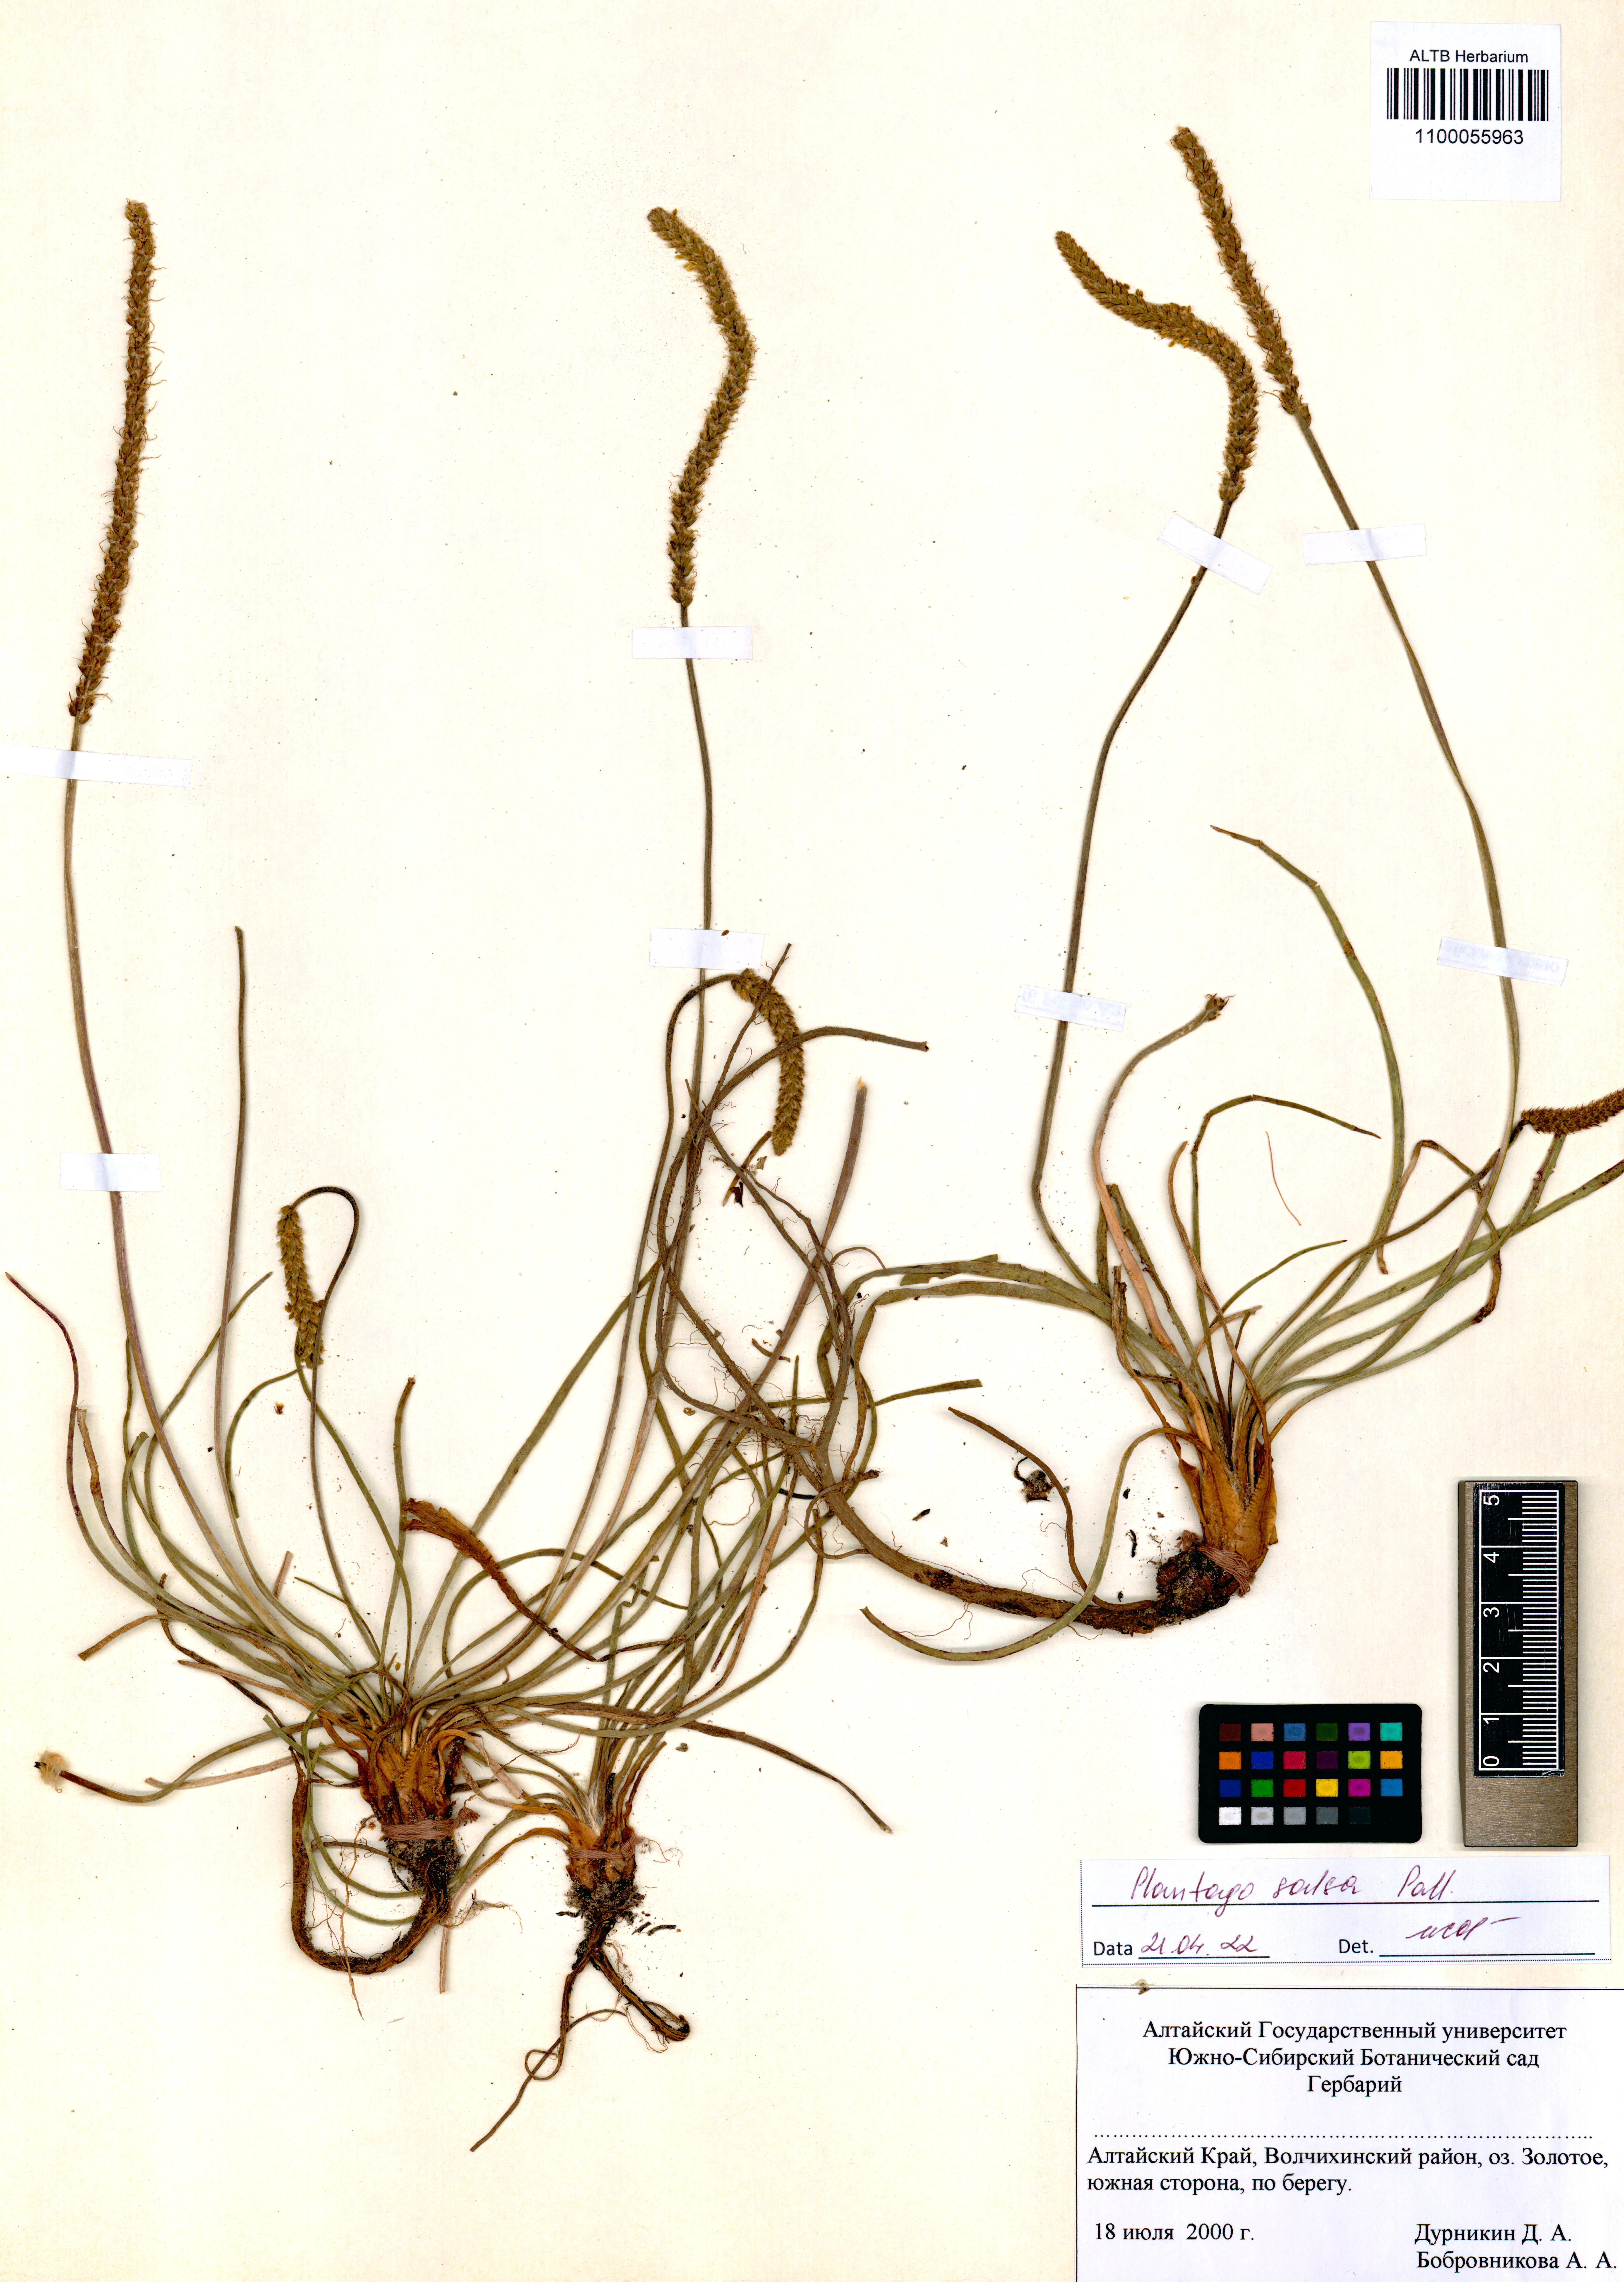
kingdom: Plantae
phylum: Tracheophyta
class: Magnoliopsida
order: Lamiales
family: Plantaginaceae
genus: Plantago
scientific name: Plantago salsa
